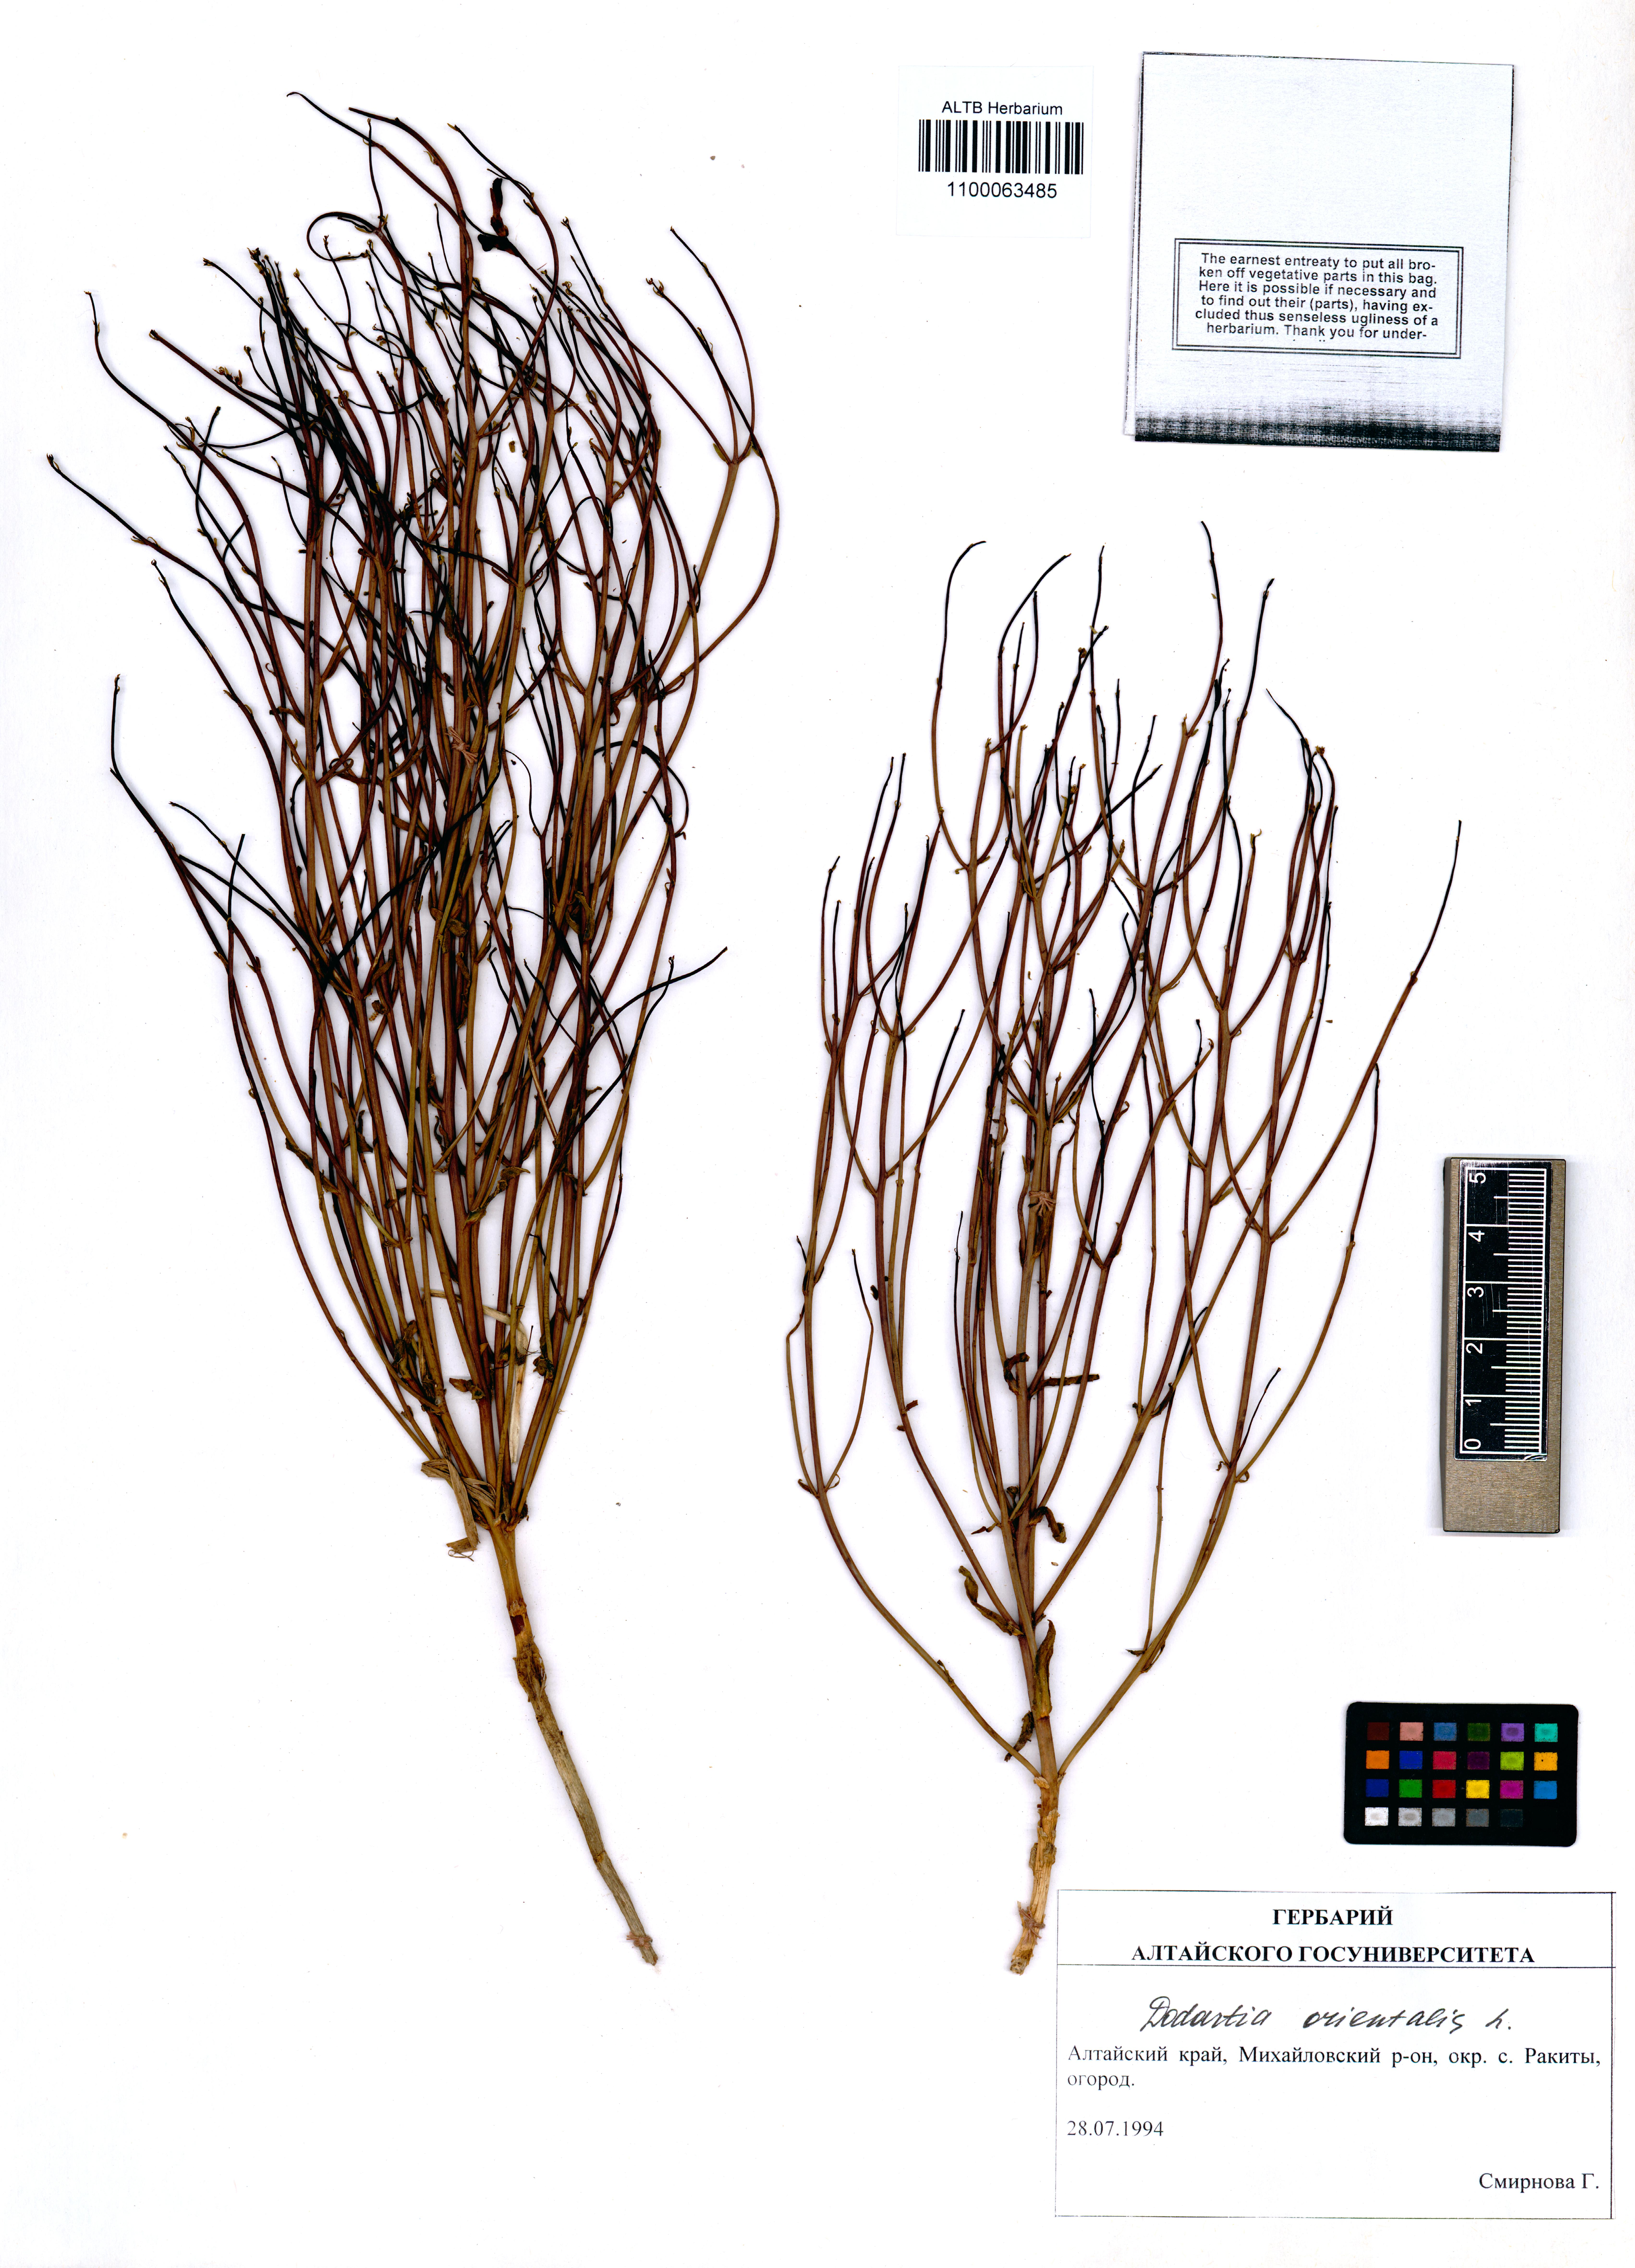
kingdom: Plantae
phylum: Tracheophyta
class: Magnoliopsida
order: Lamiales
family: Mazaceae
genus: Dodartia
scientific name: Dodartia orientalis
